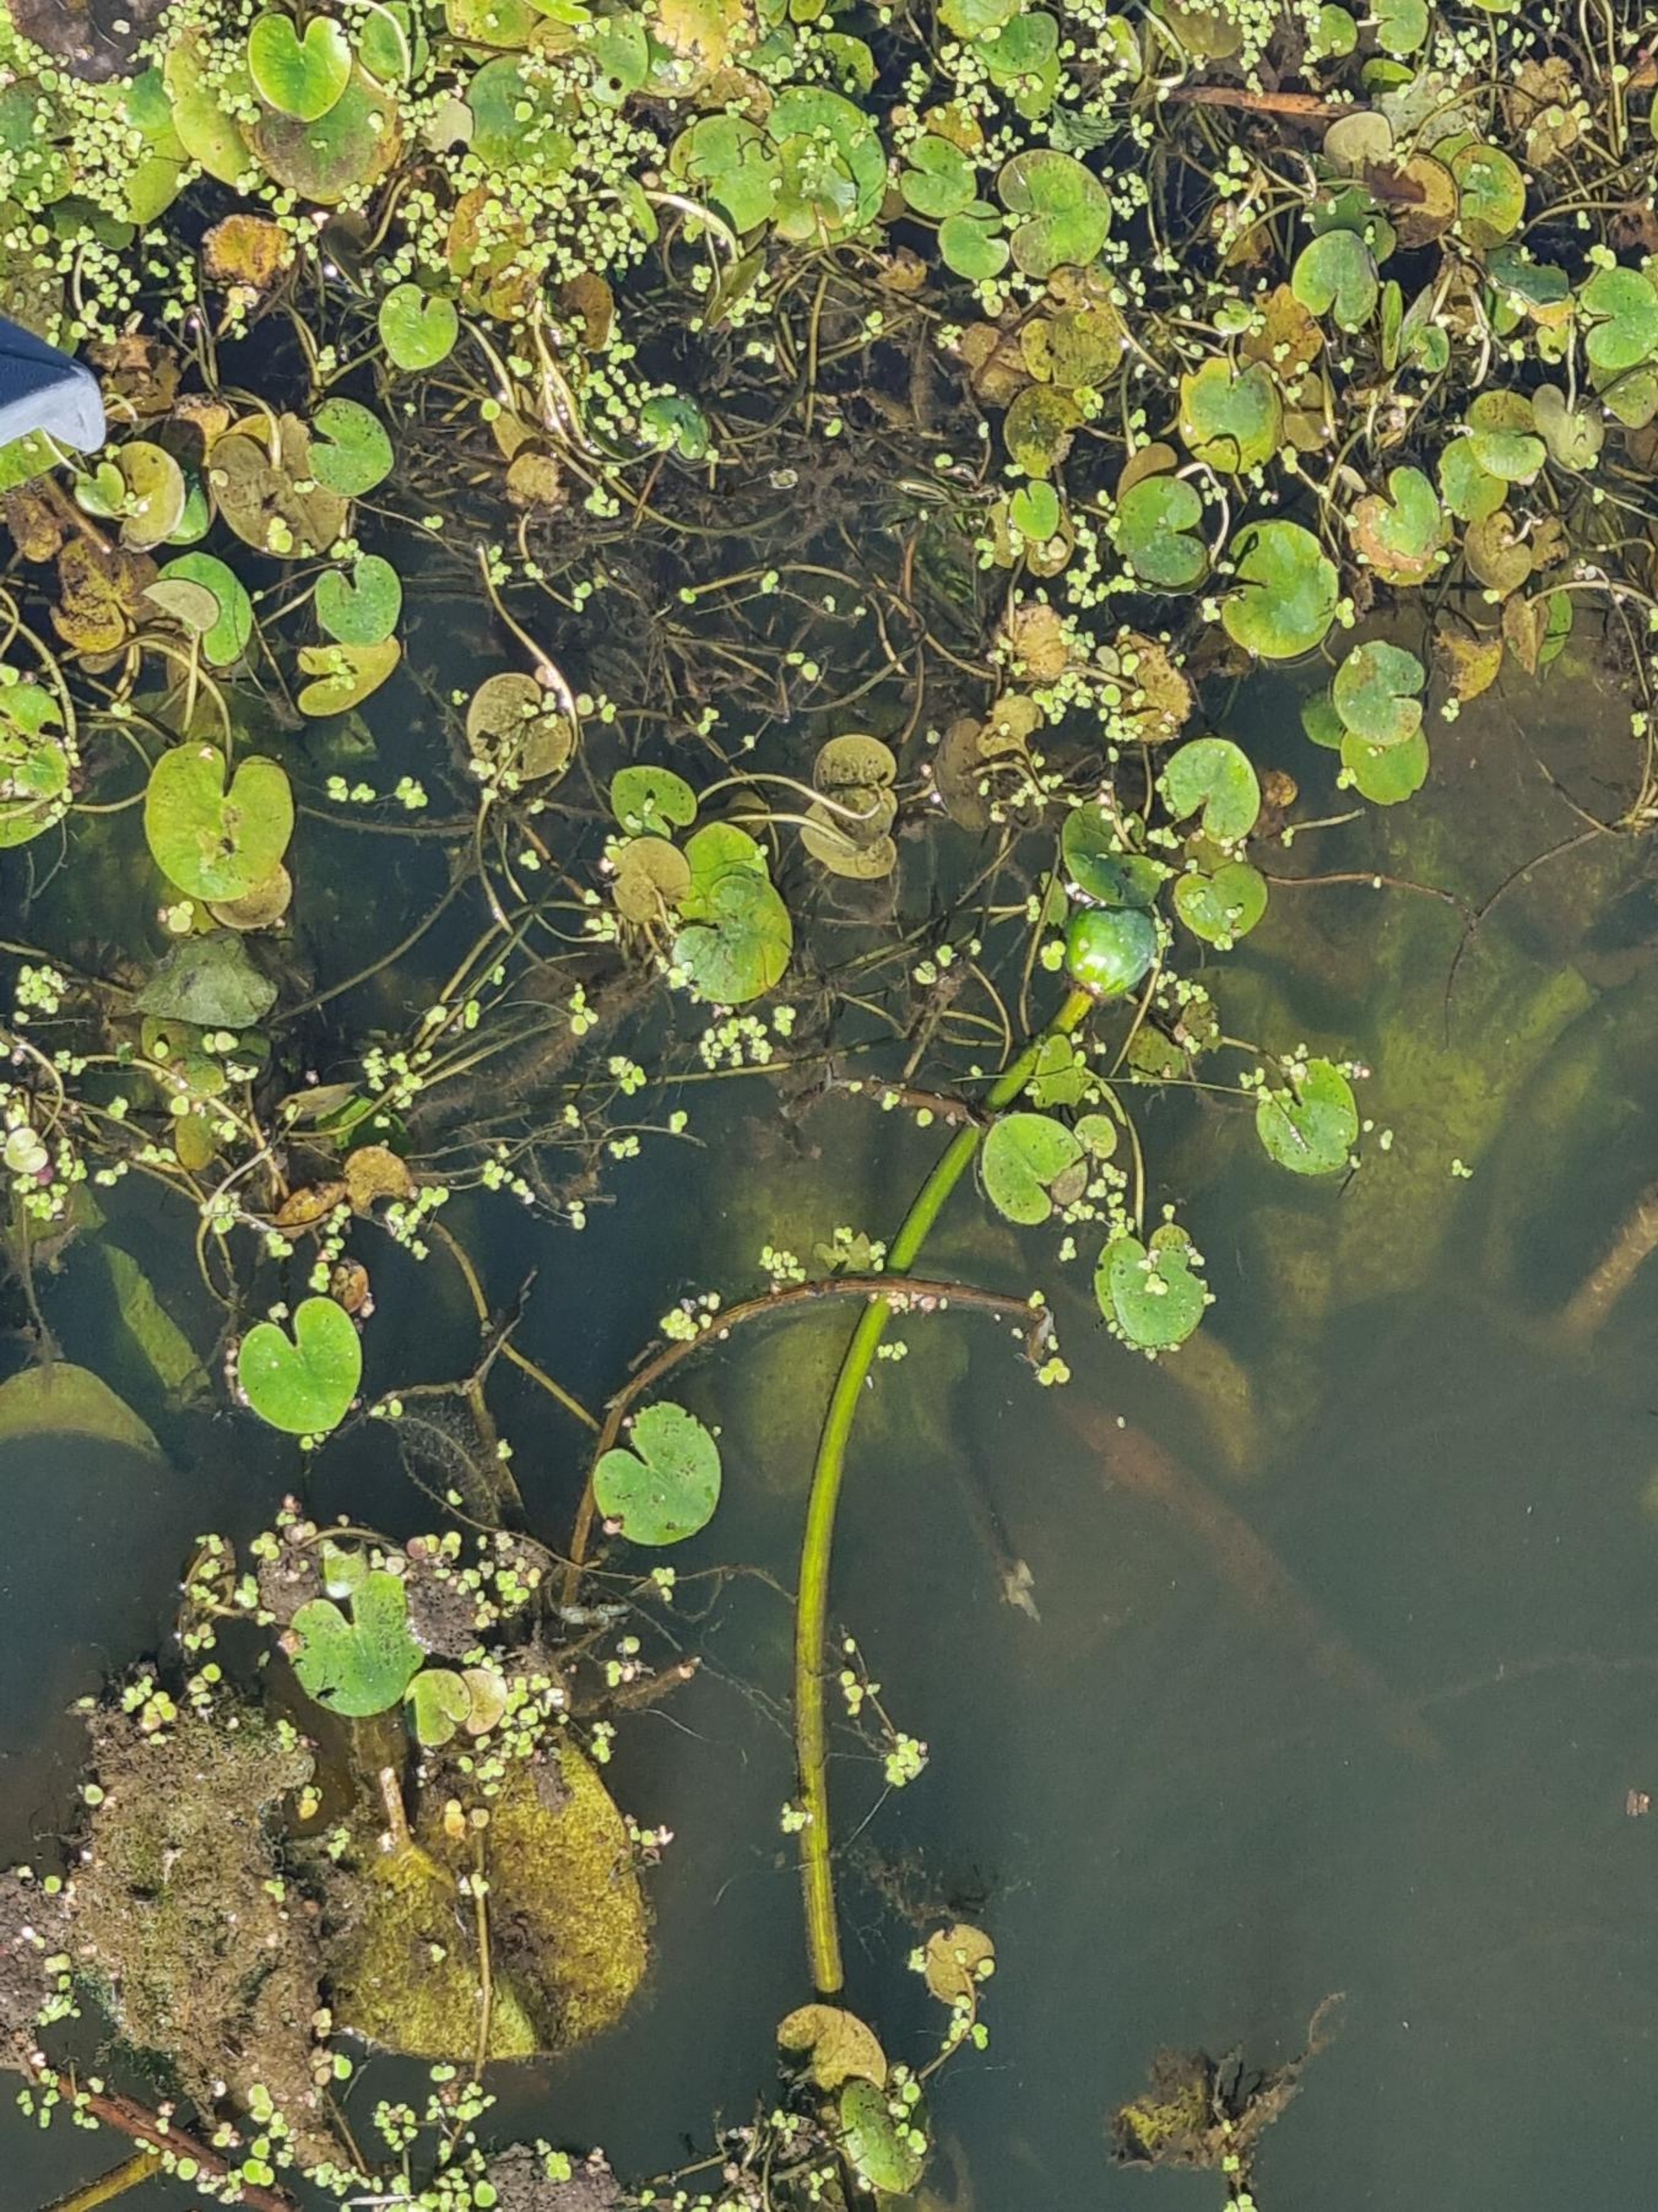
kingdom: Plantae
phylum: Tracheophyta
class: Liliopsida
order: Alismatales
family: Hydrocharitaceae
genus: Hydrocharis
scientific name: Hydrocharis morsus-ranae
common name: Frøbid
